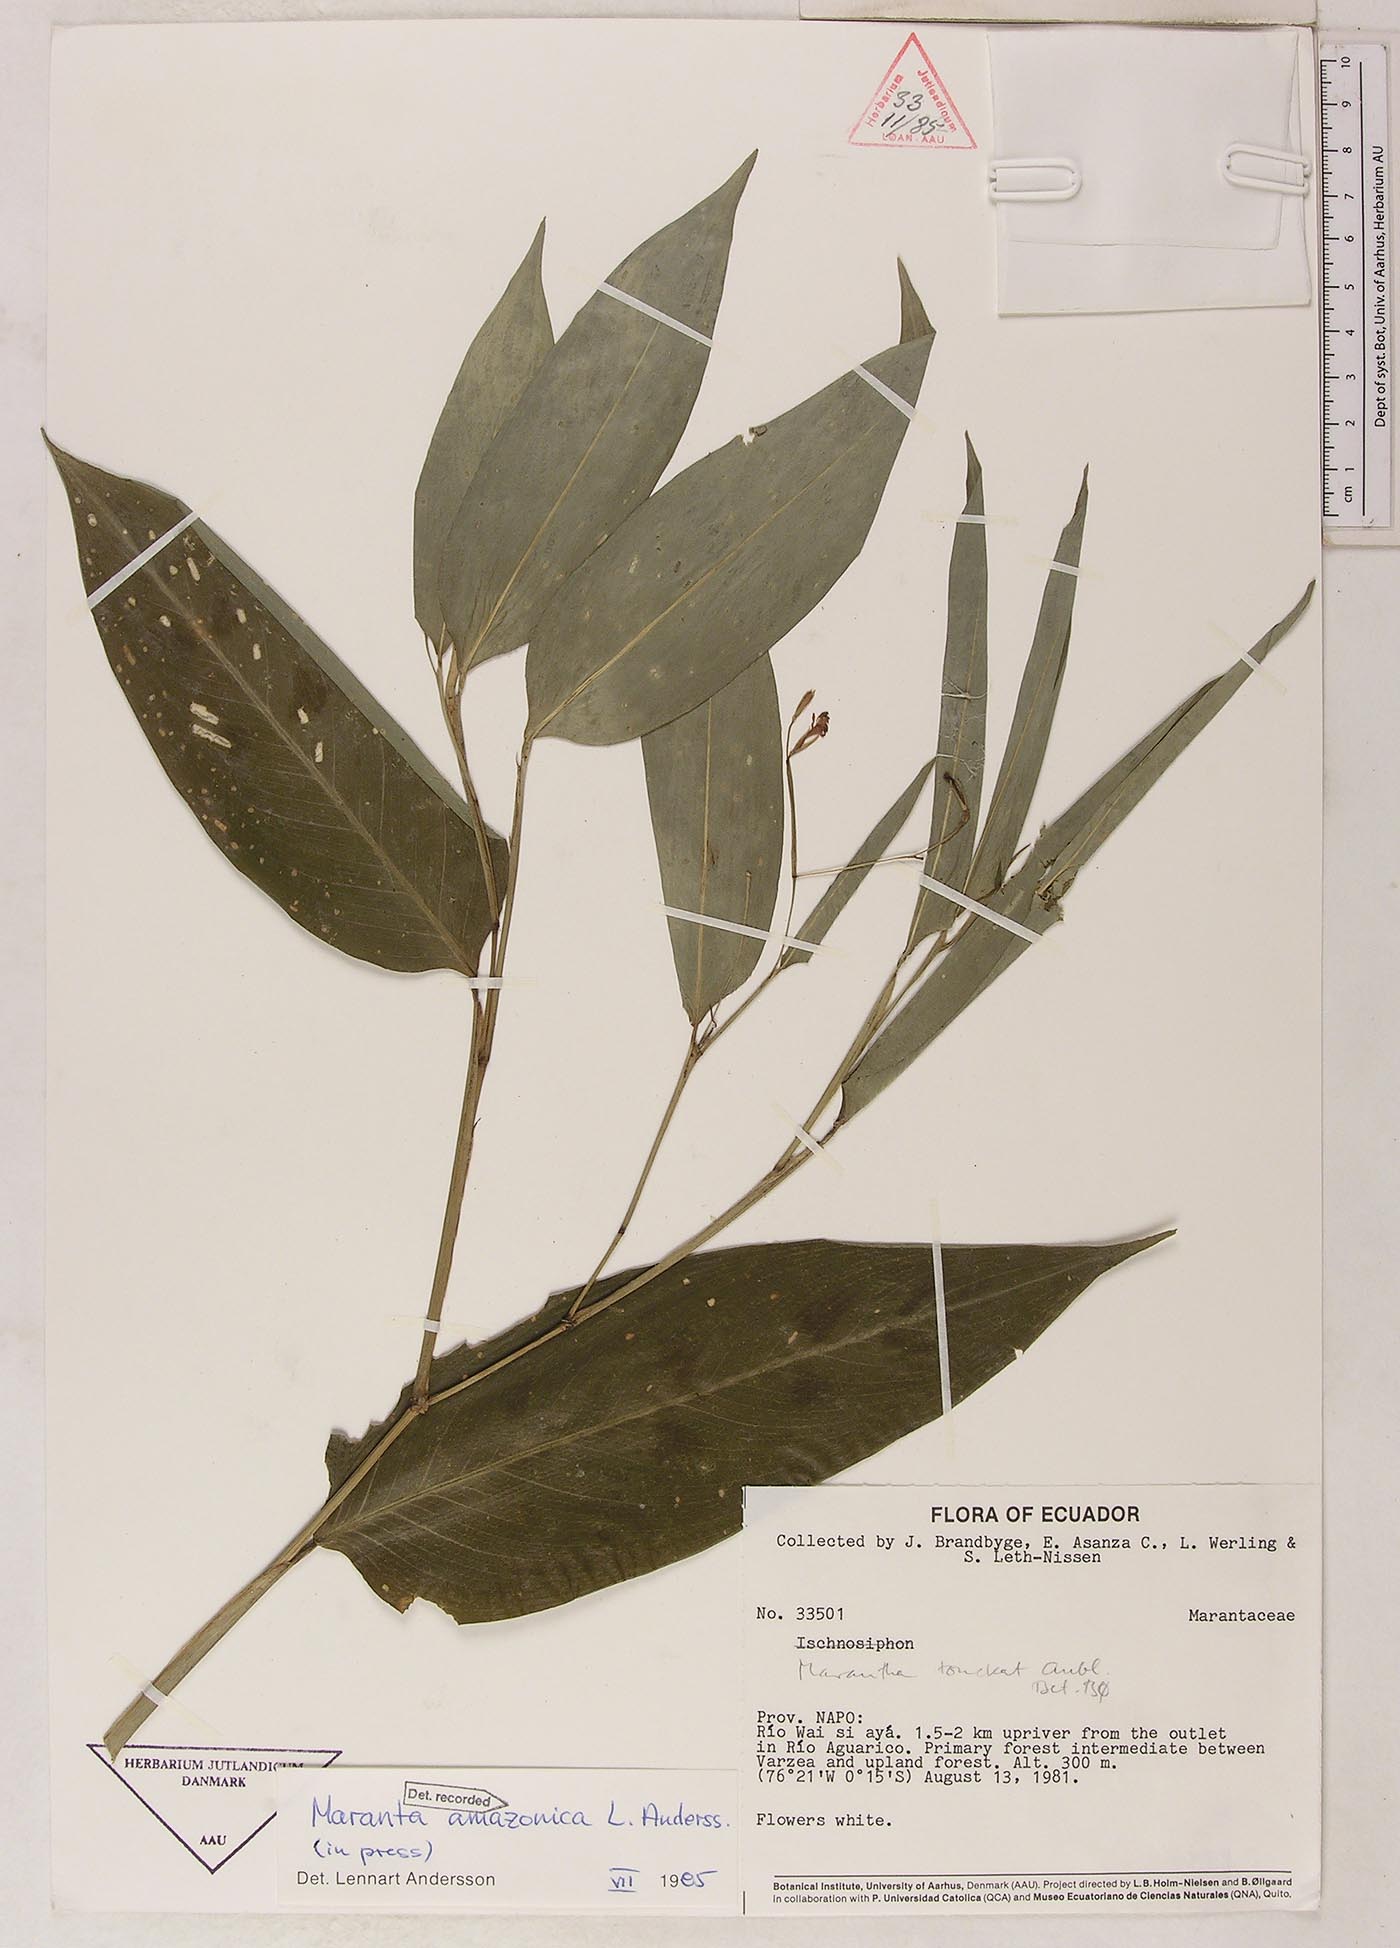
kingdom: Plantae
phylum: Tracheophyta
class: Liliopsida
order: Zingiberales
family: Marantaceae
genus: Maranta
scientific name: Maranta amazonica
